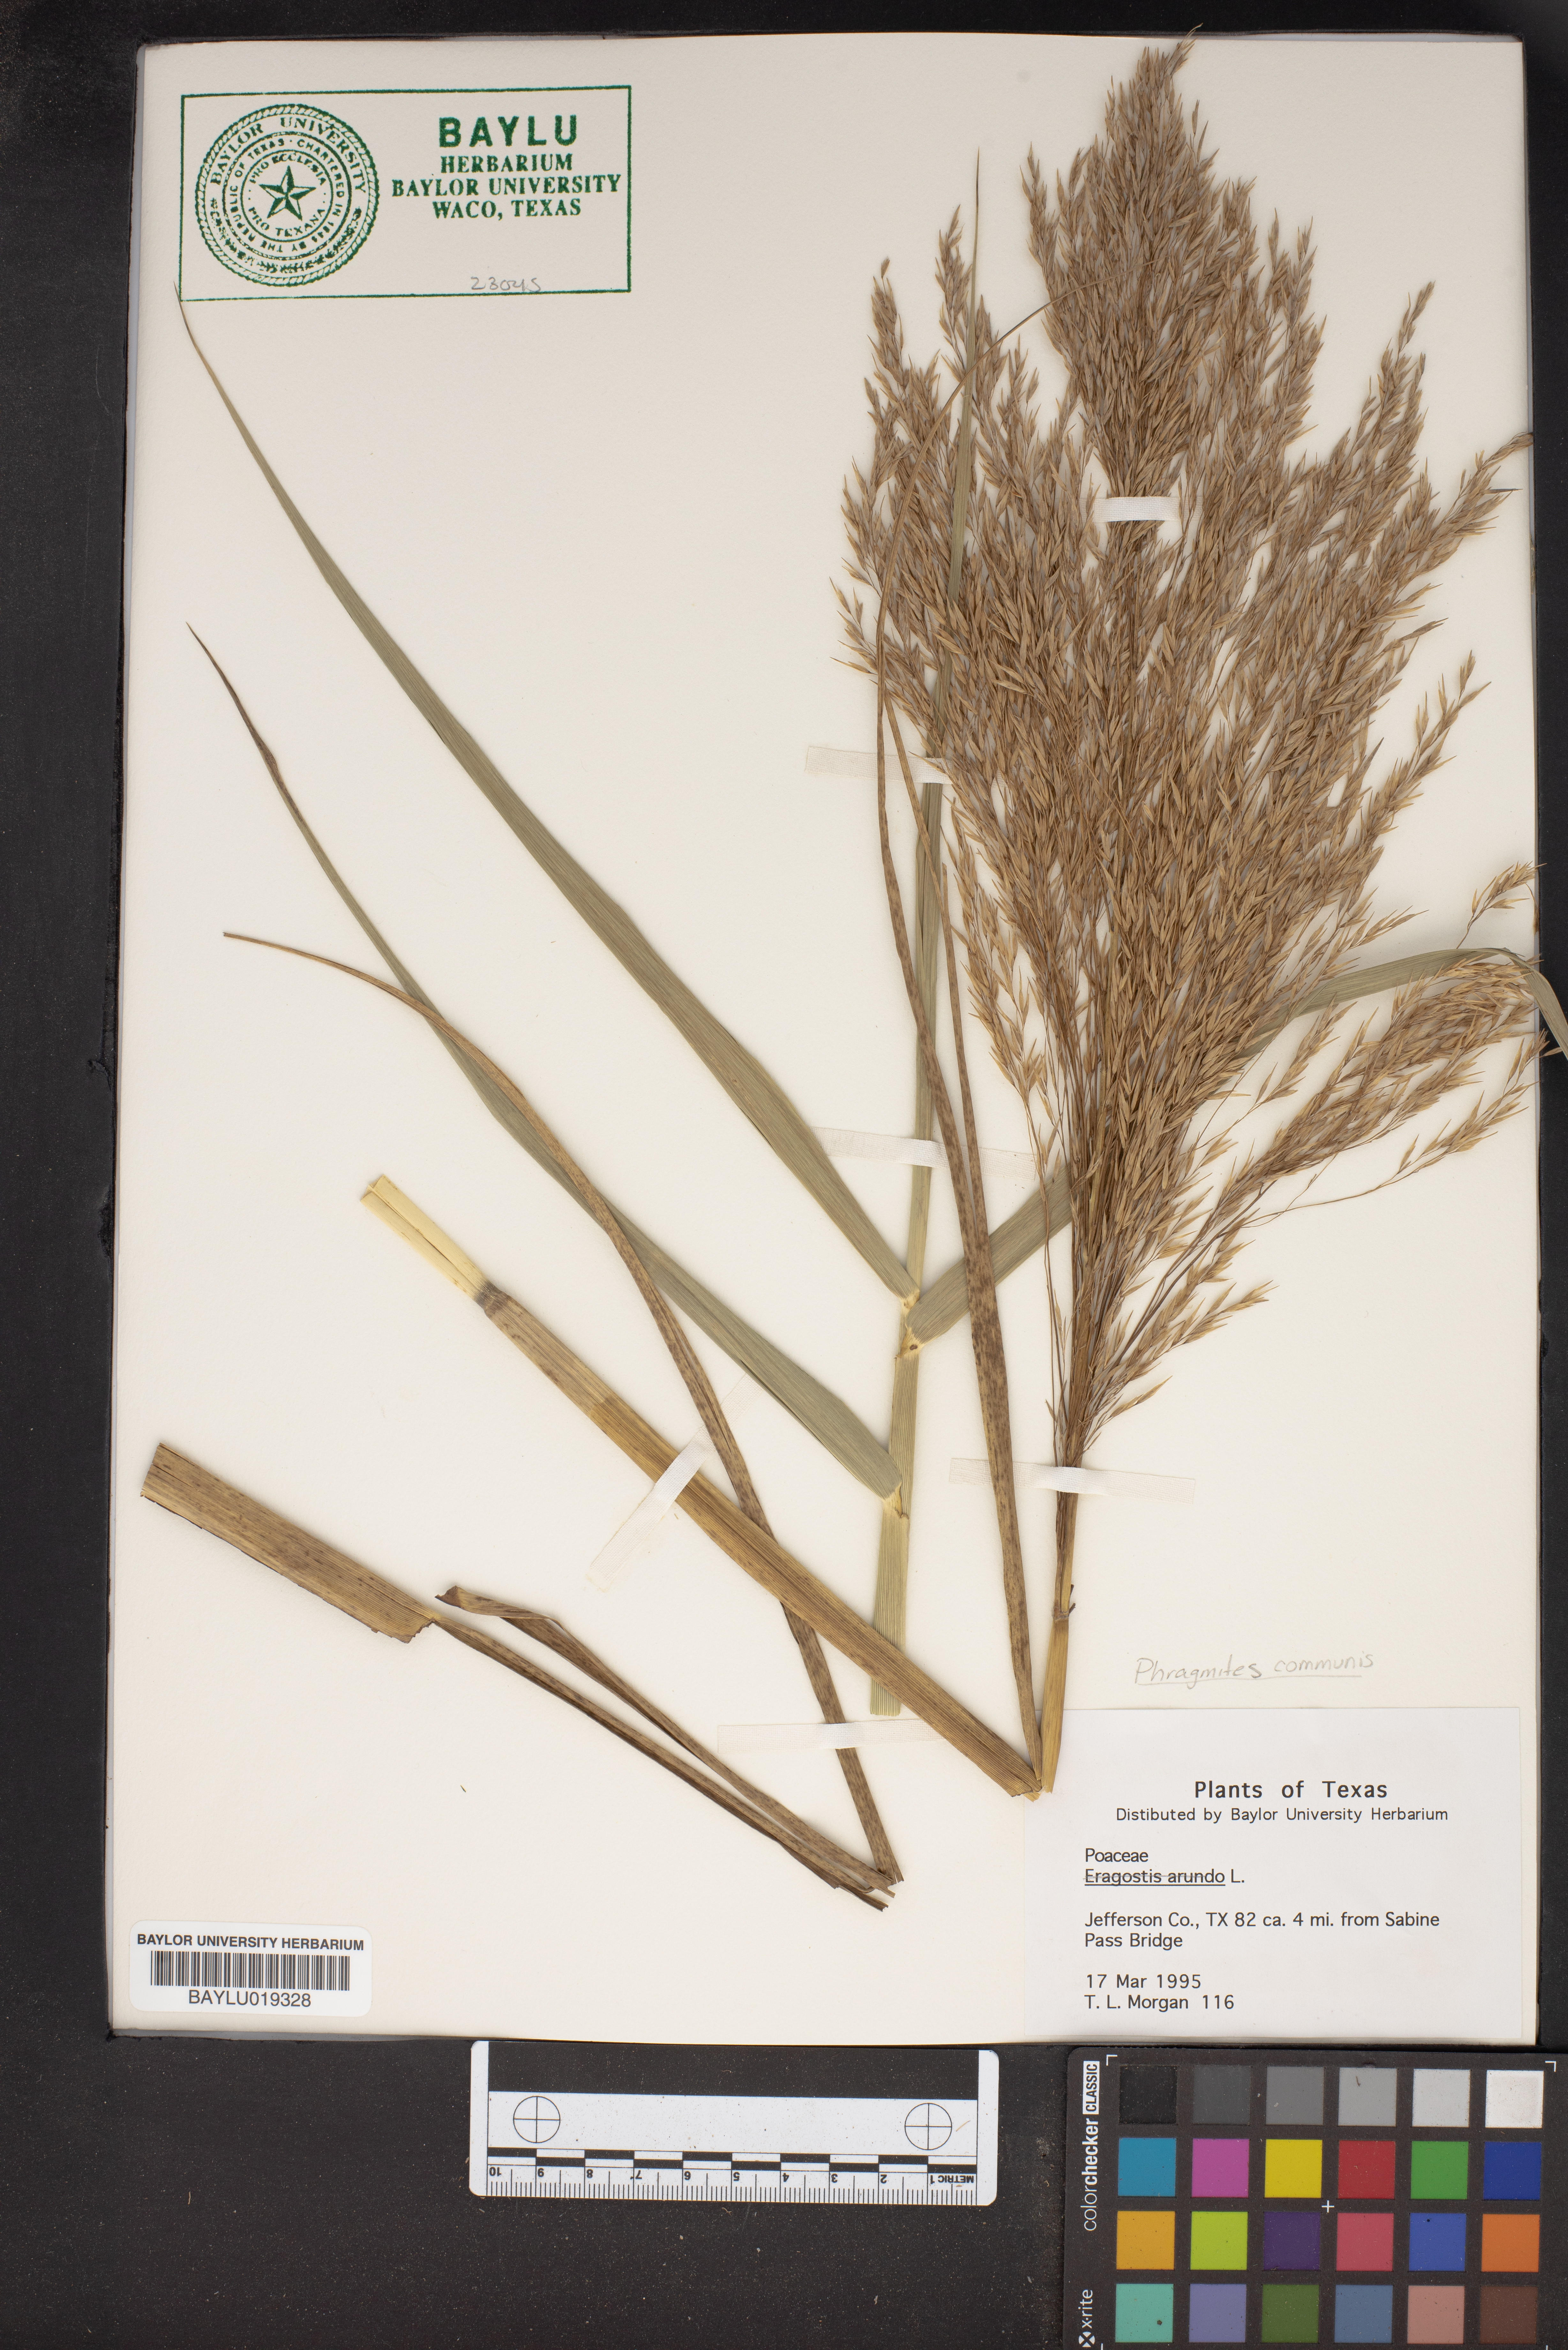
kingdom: Plantae
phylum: Tracheophyta
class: Liliopsida
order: Poales
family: Poaceae
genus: Phragmites
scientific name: Phragmites australis
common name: Common reed
